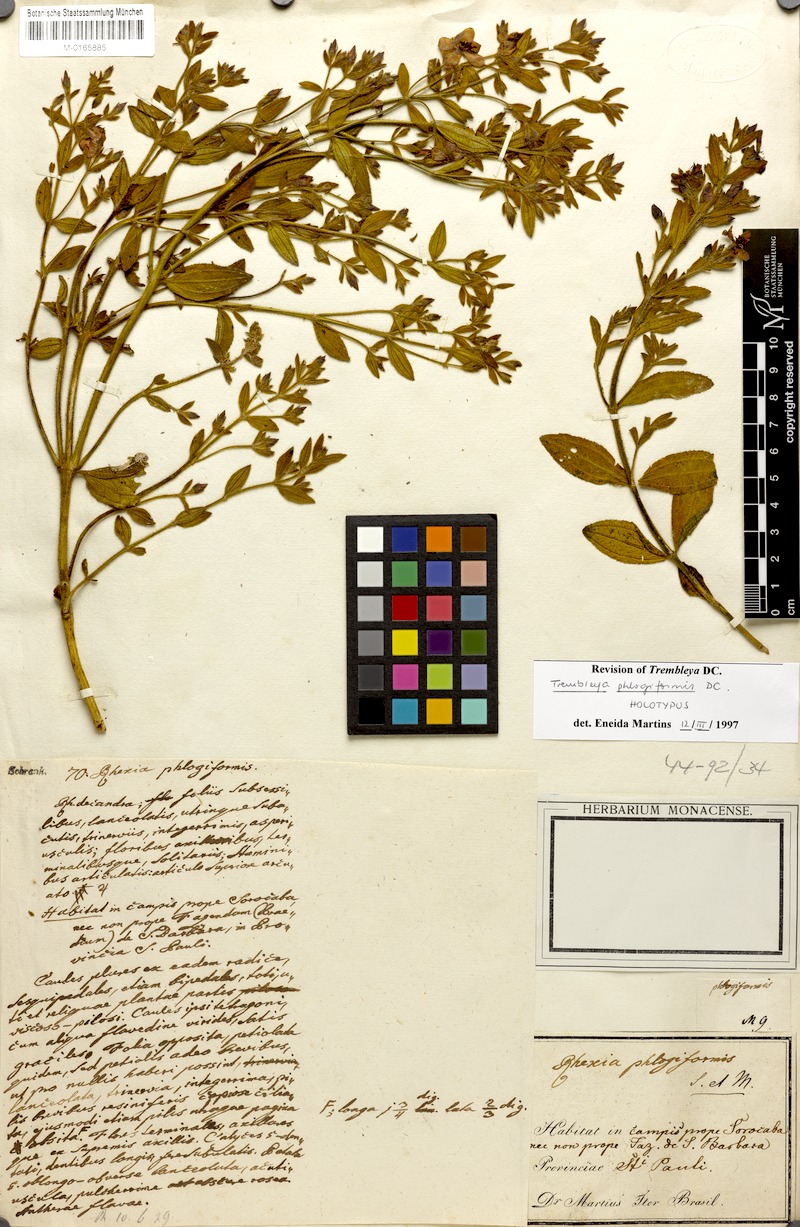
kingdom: Plantae
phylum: Tracheophyta
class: Magnoliopsida
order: Myrtales
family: Melastomataceae
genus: Microlicia
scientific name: Microlicia phlogiformis
